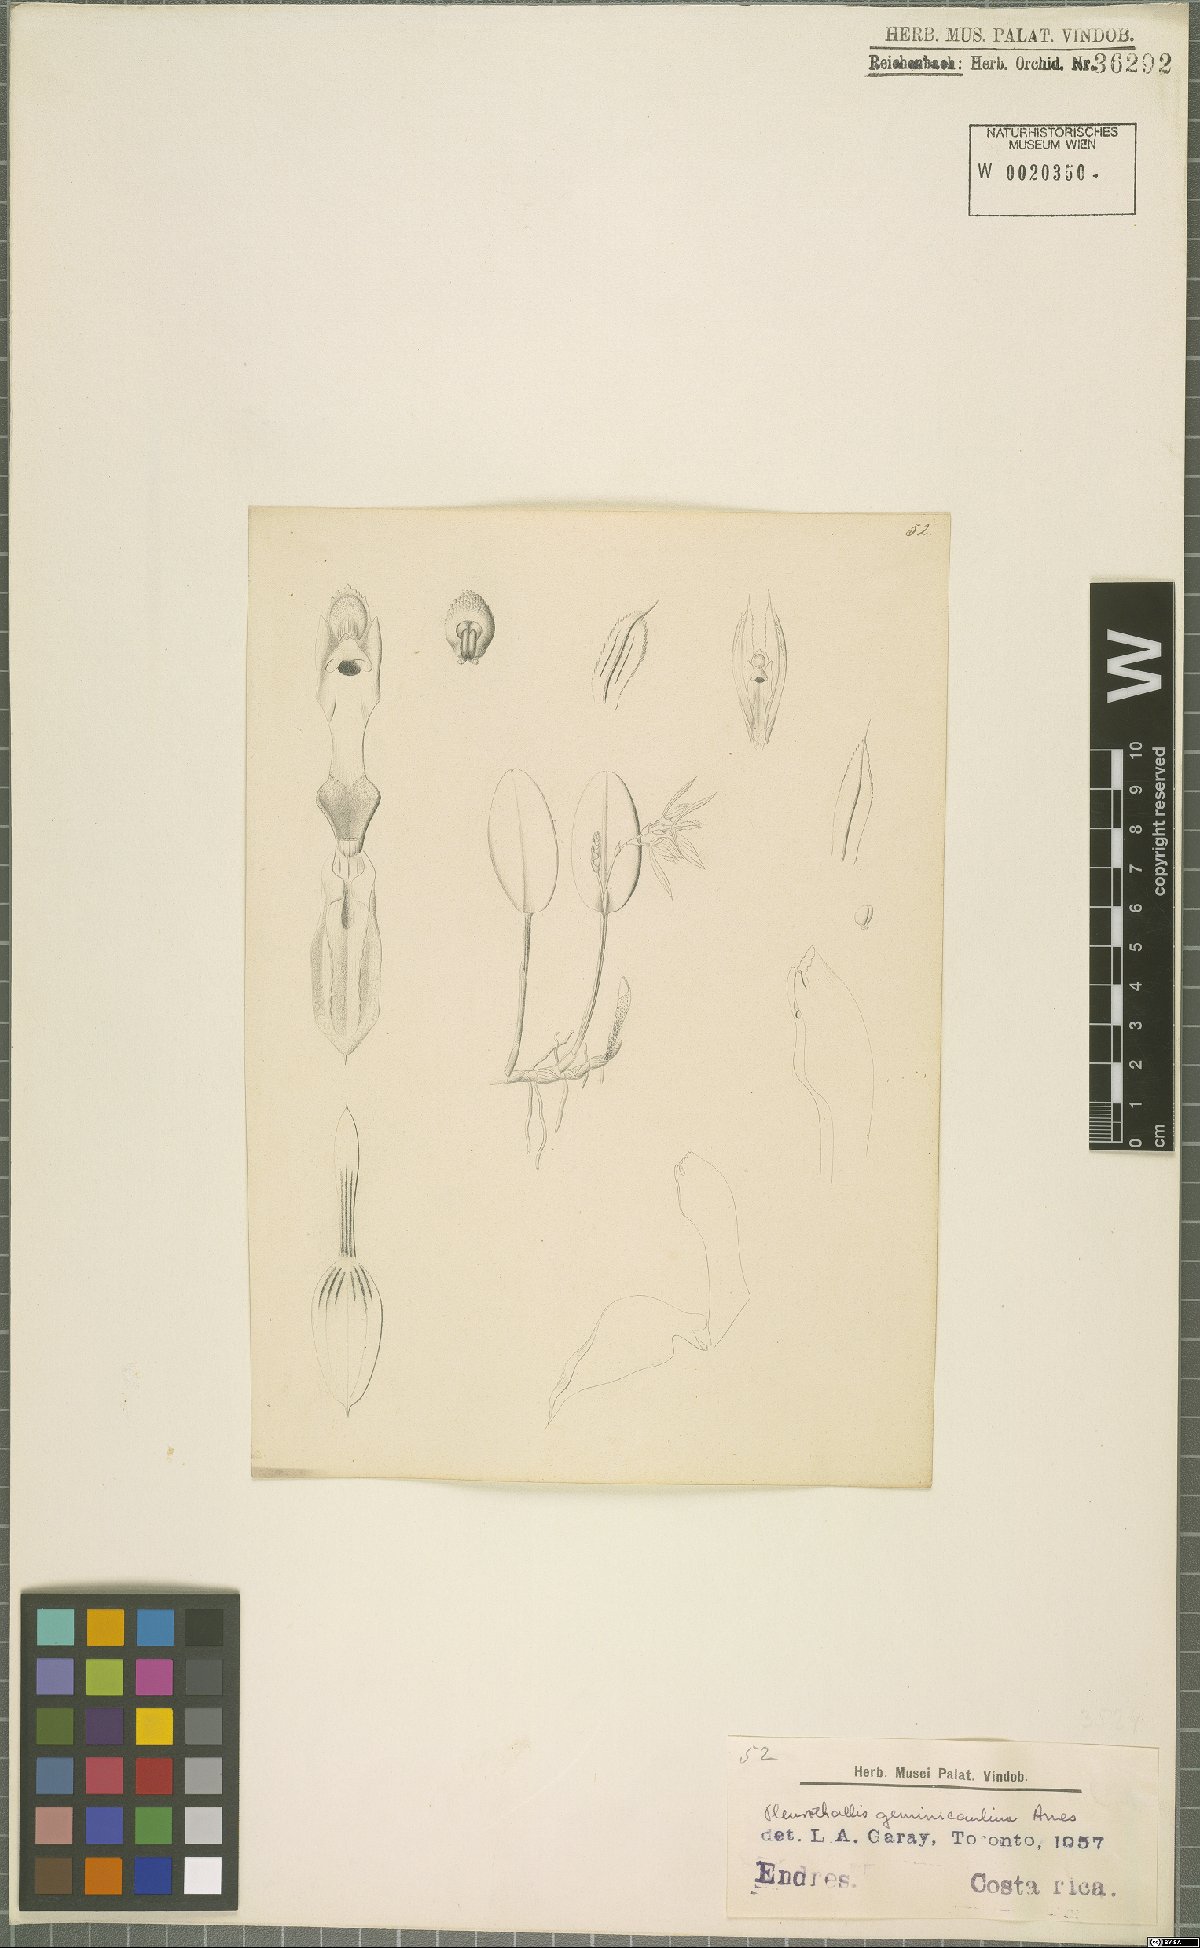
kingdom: Plantae
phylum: Tracheophyta
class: Liliopsida
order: Asparagales
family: Orchidaceae
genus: Acianthera
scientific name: Acianthera geminicaulina
